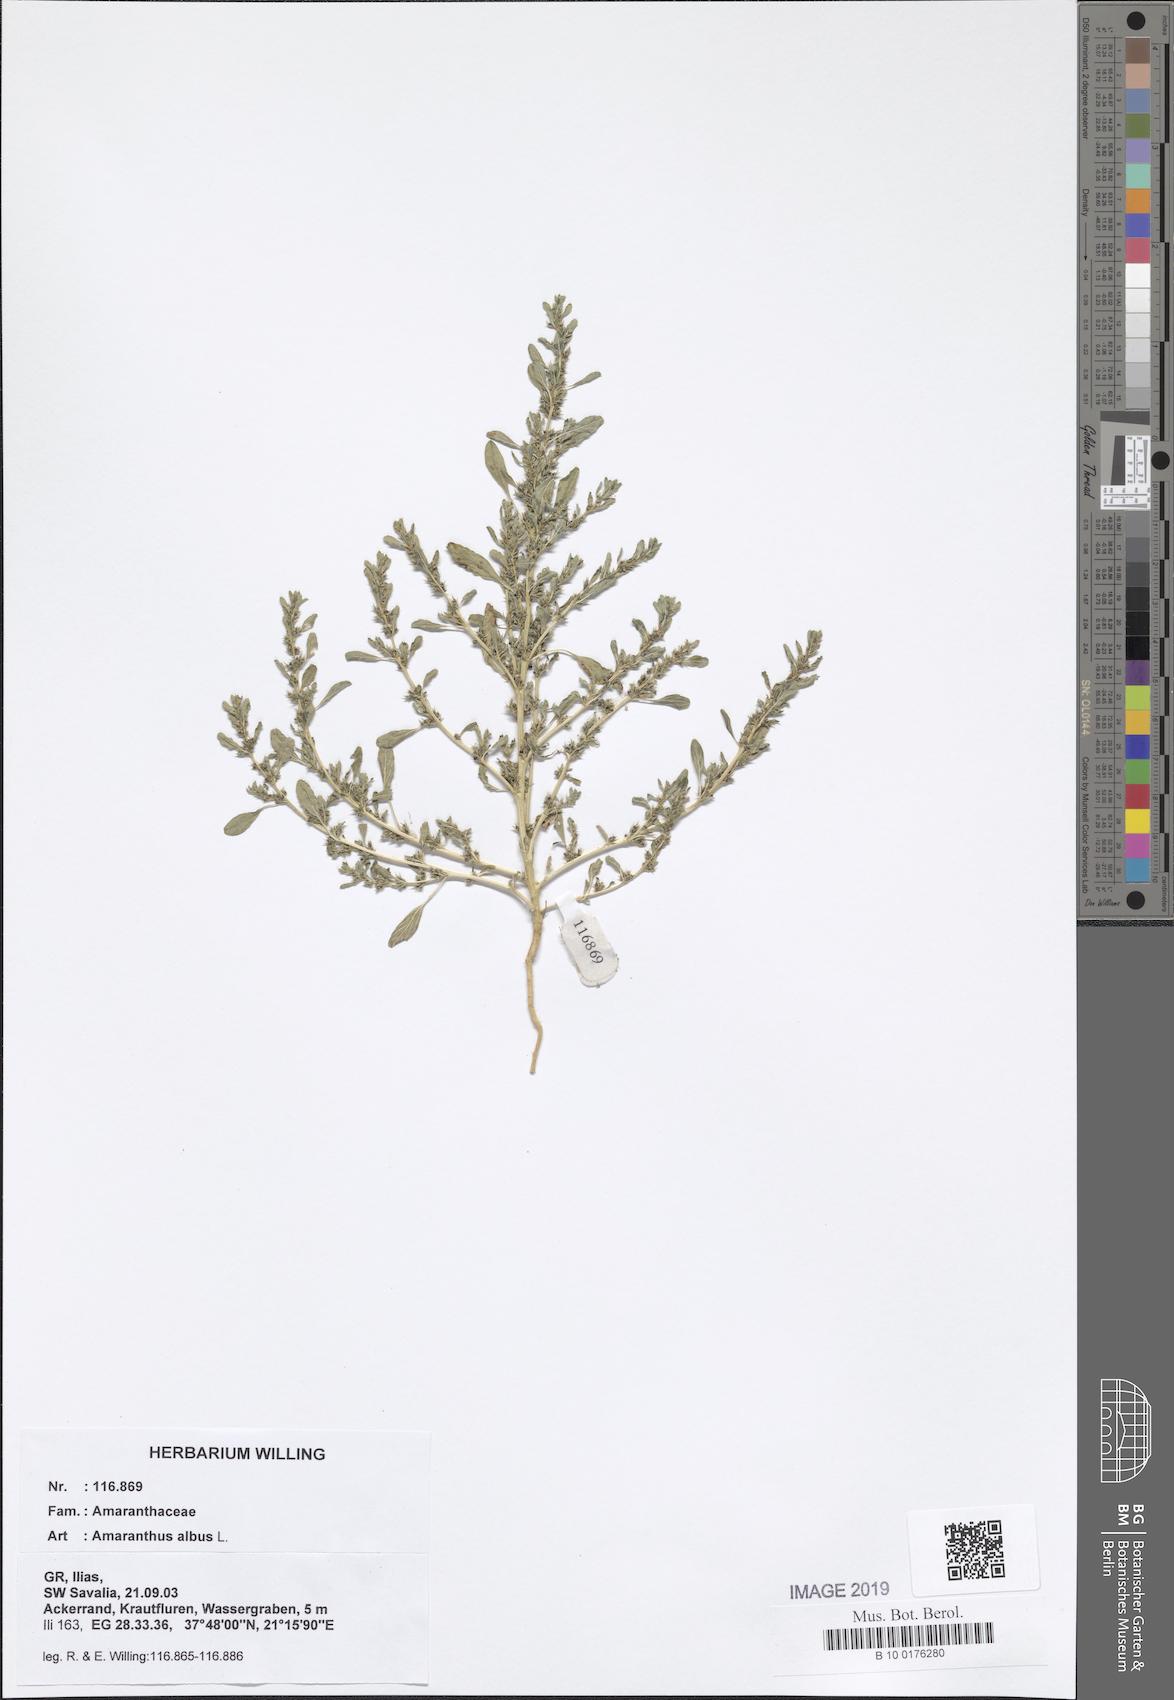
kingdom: Plantae
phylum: Tracheophyta
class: Magnoliopsida
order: Caryophyllales
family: Amaranthaceae
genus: Amaranthus
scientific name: Amaranthus albus
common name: White pigweed
